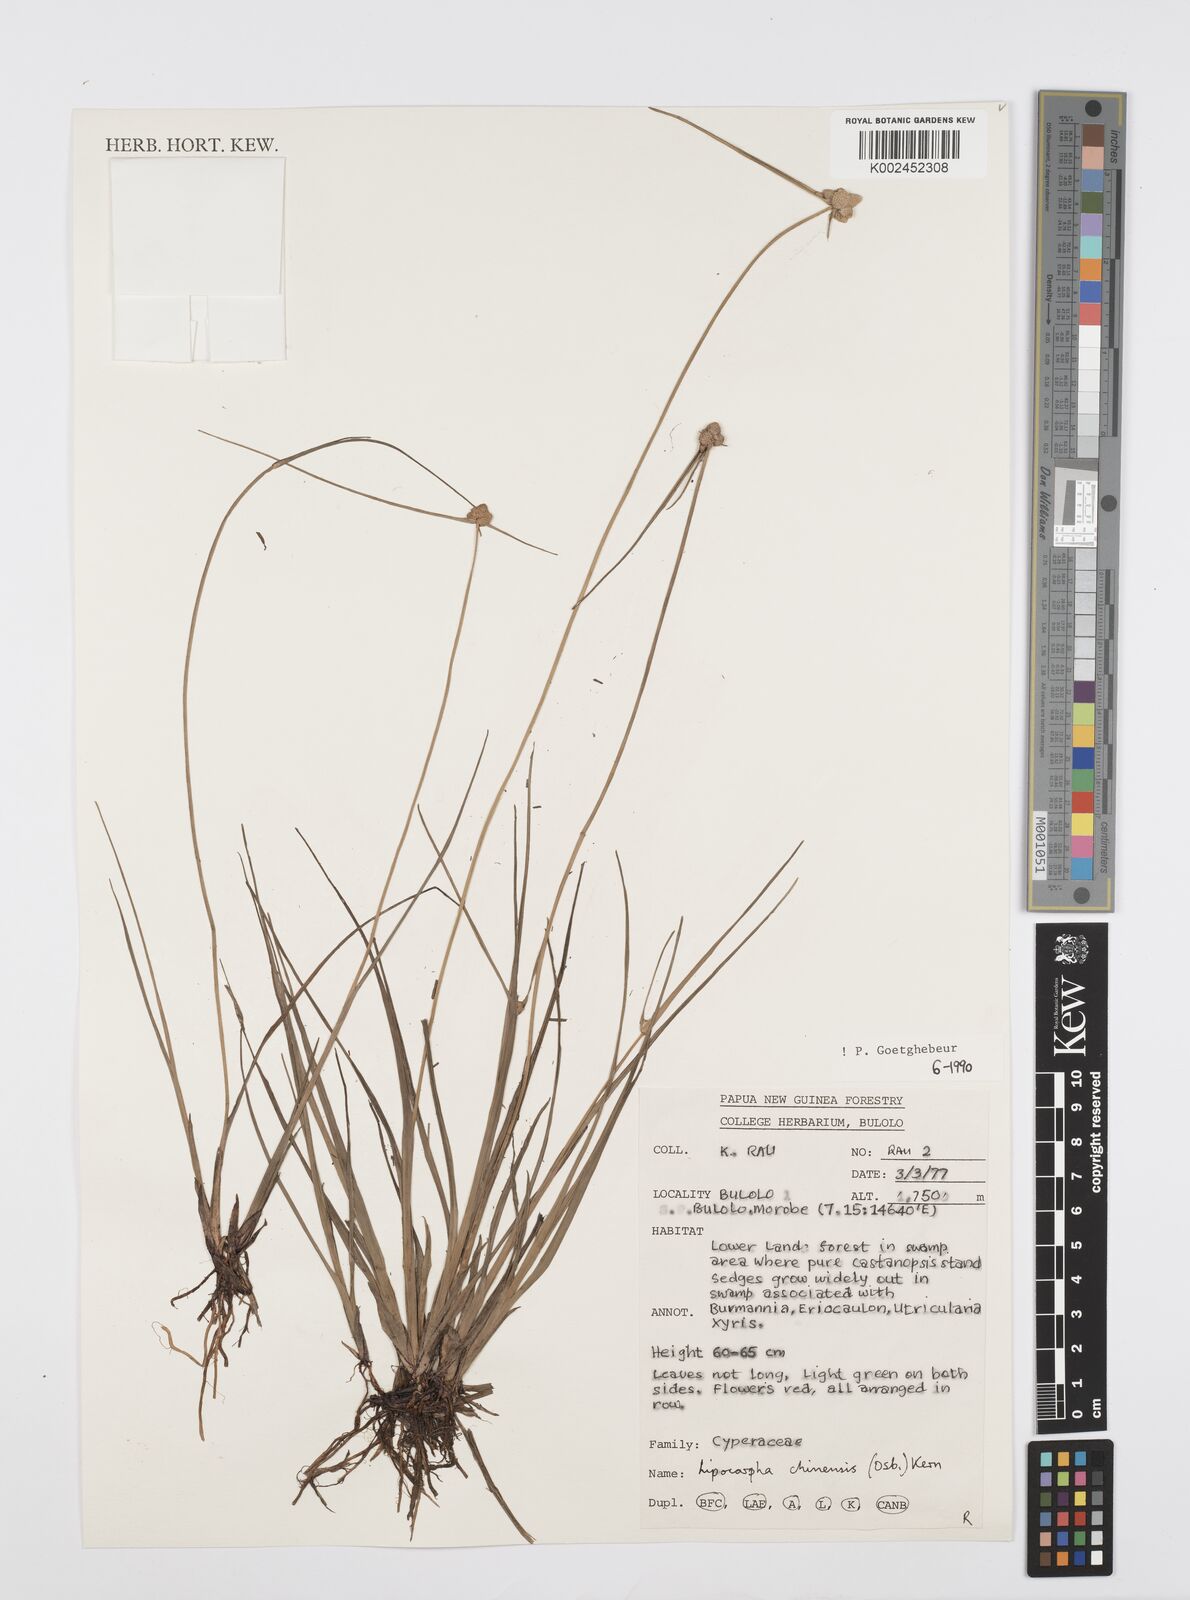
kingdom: Plantae
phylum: Tracheophyta
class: Liliopsida
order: Poales
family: Cyperaceae
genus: Cyperus
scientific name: Cyperus
